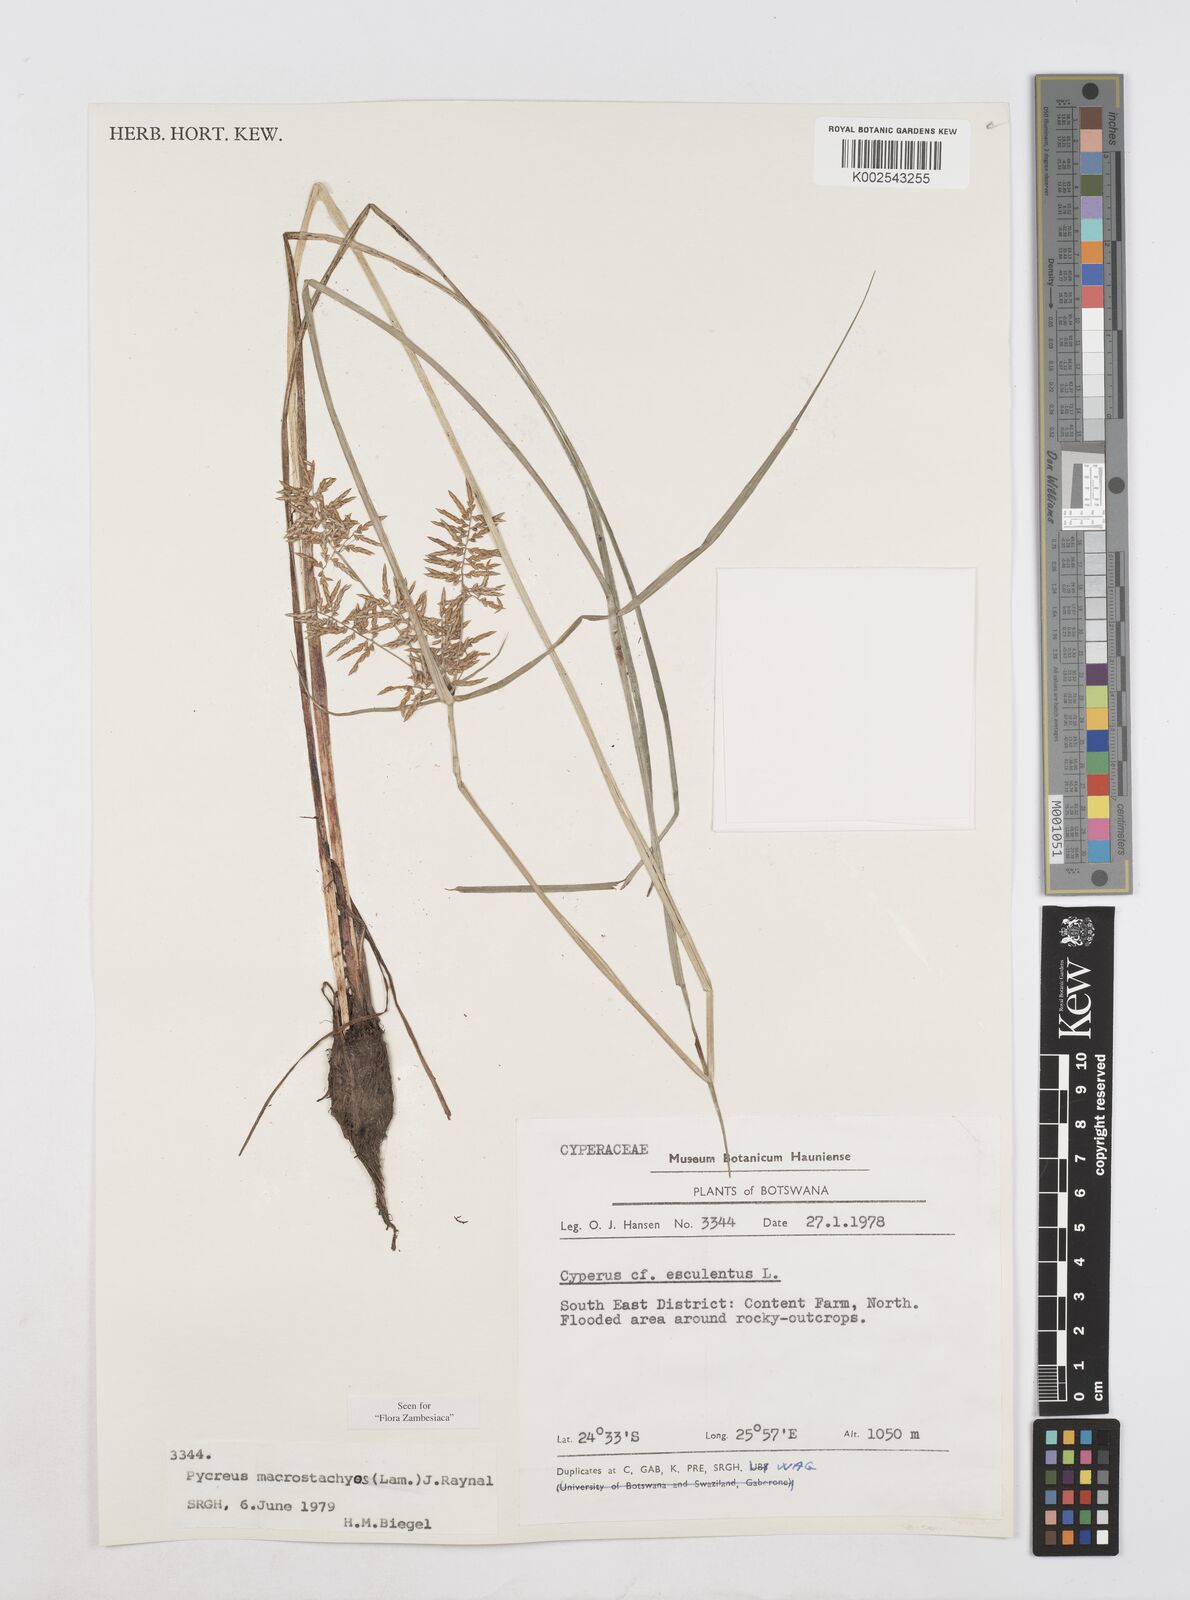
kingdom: Plantae
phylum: Tracheophyta
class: Liliopsida
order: Poales
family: Cyperaceae
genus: Cyperus
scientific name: Cyperus macrostachyos
